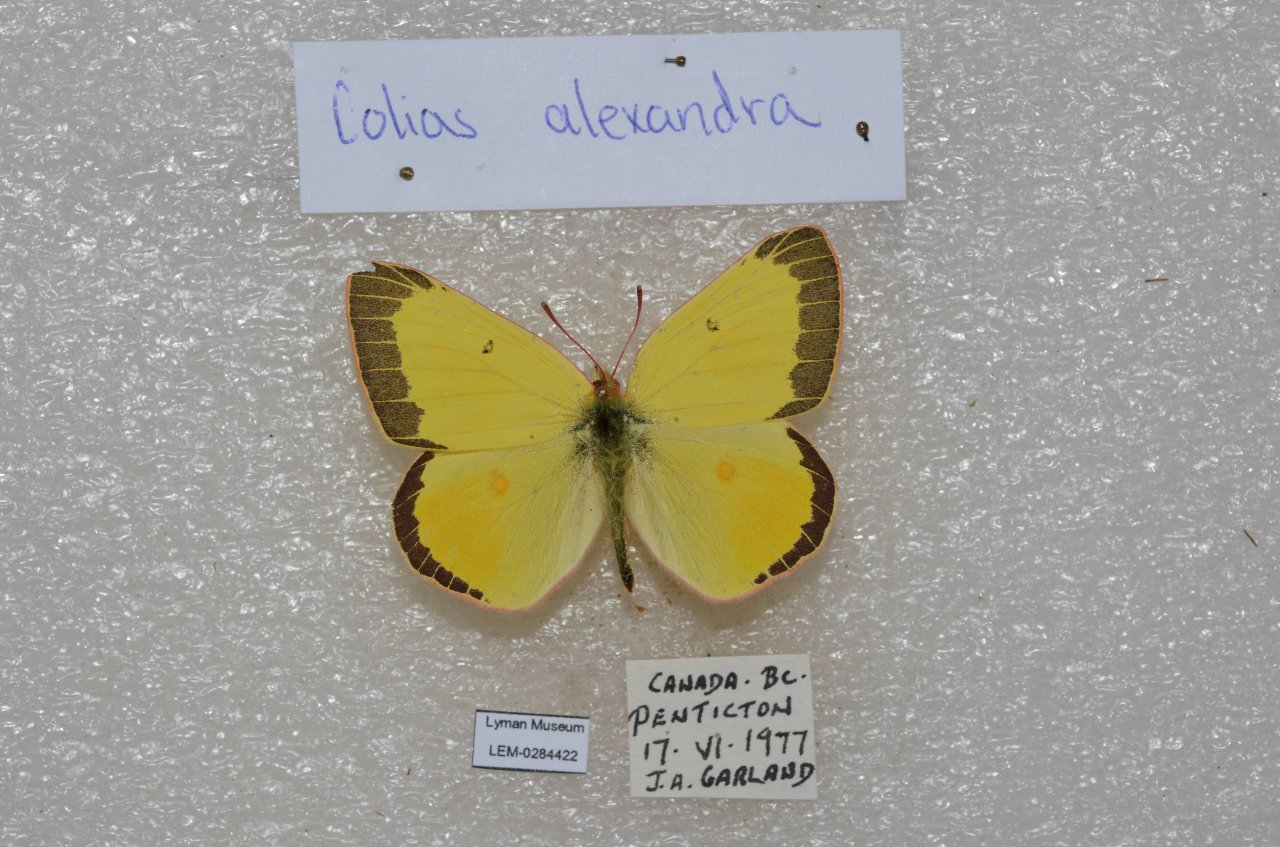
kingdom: Animalia
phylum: Arthropoda
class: Insecta
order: Lepidoptera
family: Pieridae
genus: Colias
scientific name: Colias alexandra
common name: Queen Alexandra's Sulphur
